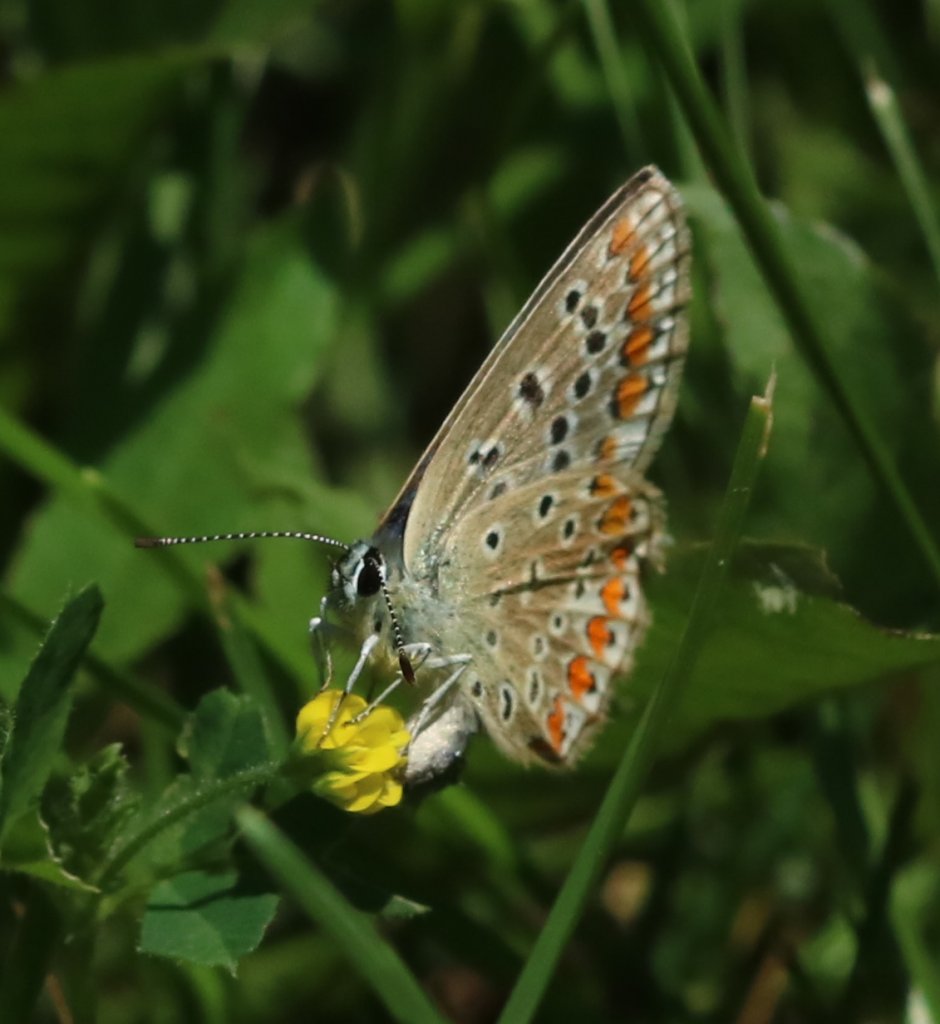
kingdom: Animalia
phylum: Arthropoda
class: Insecta
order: Lepidoptera
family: Lycaenidae
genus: Polyommatus
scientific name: Polyommatus icarus
